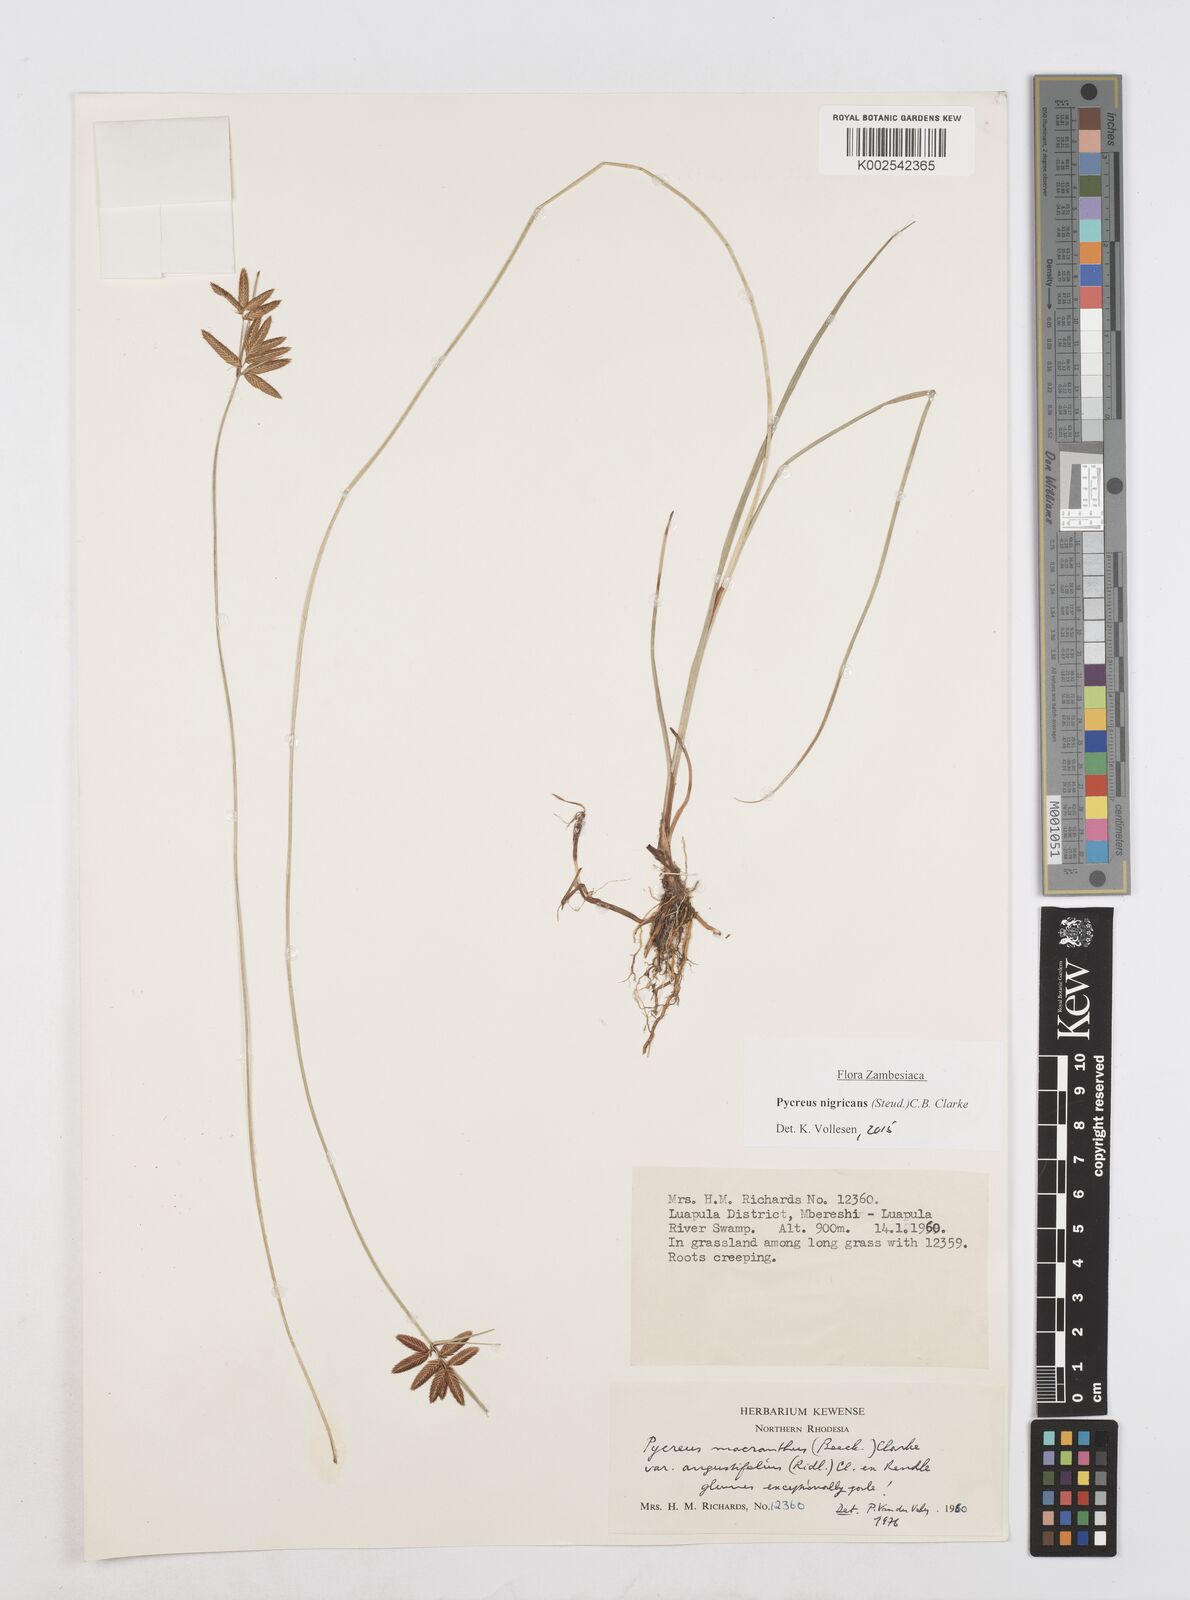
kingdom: Plantae
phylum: Tracheophyta
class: Liliopsida
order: Poales
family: Cyperaceae
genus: Cyperus
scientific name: Cyperus nigricans
